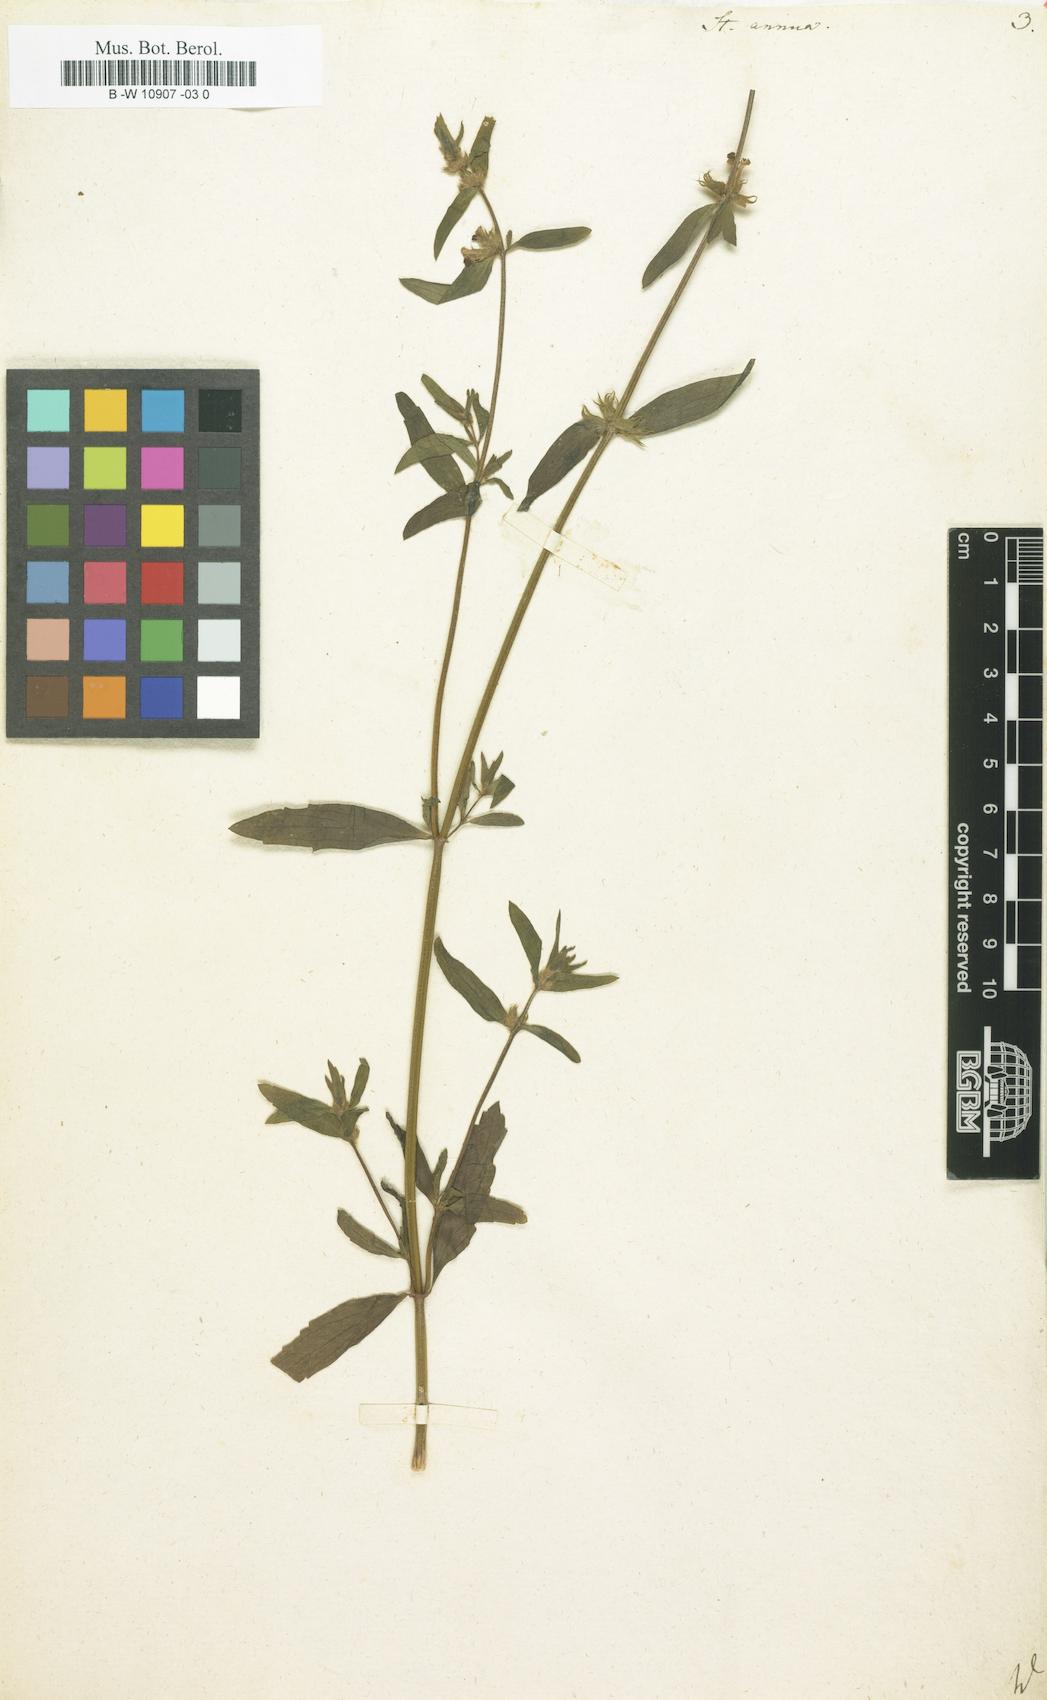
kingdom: Plantae
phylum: Tracheophyta
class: Magnoliopsida
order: Lamiales
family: Lamiaceae
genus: Stachys
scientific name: Stachys annua
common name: Annual yellow-woundwort
